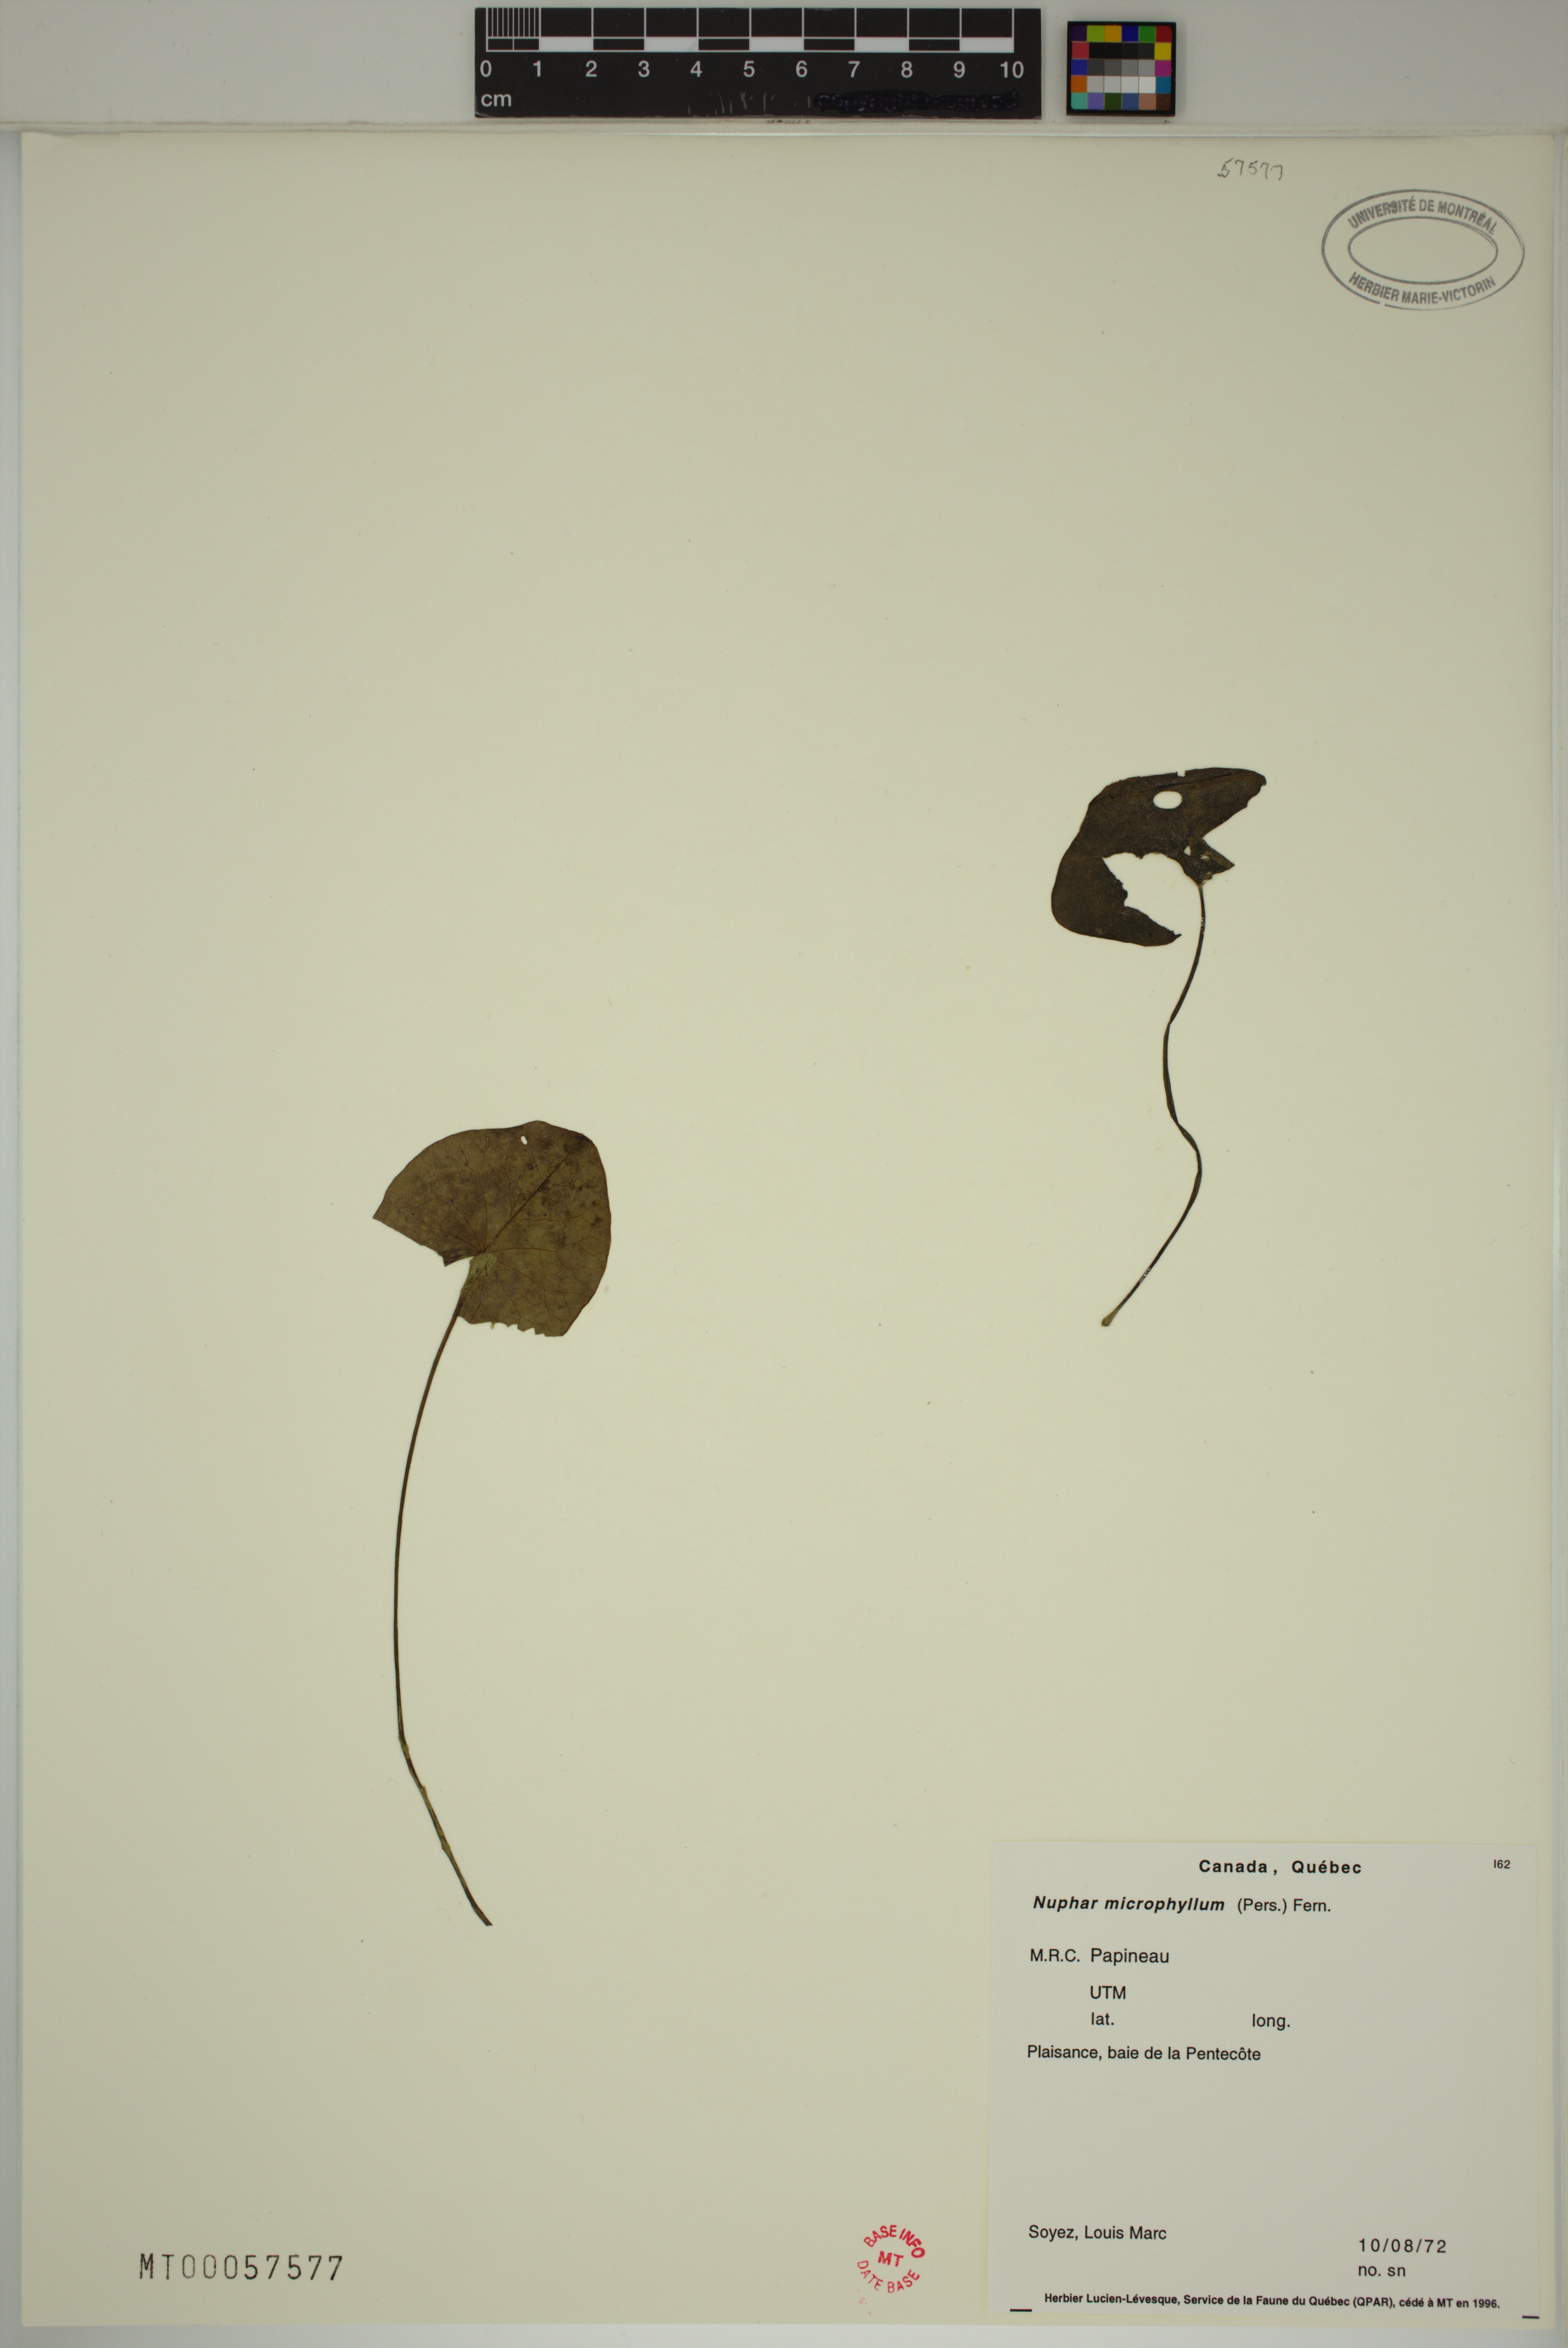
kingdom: Plantae
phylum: Tracheophyta
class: Magnoliopsida
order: Nymphaeales
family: Nymphaeaceae
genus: Nuphar
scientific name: Nuphar microphylla
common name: Small pond-lily
